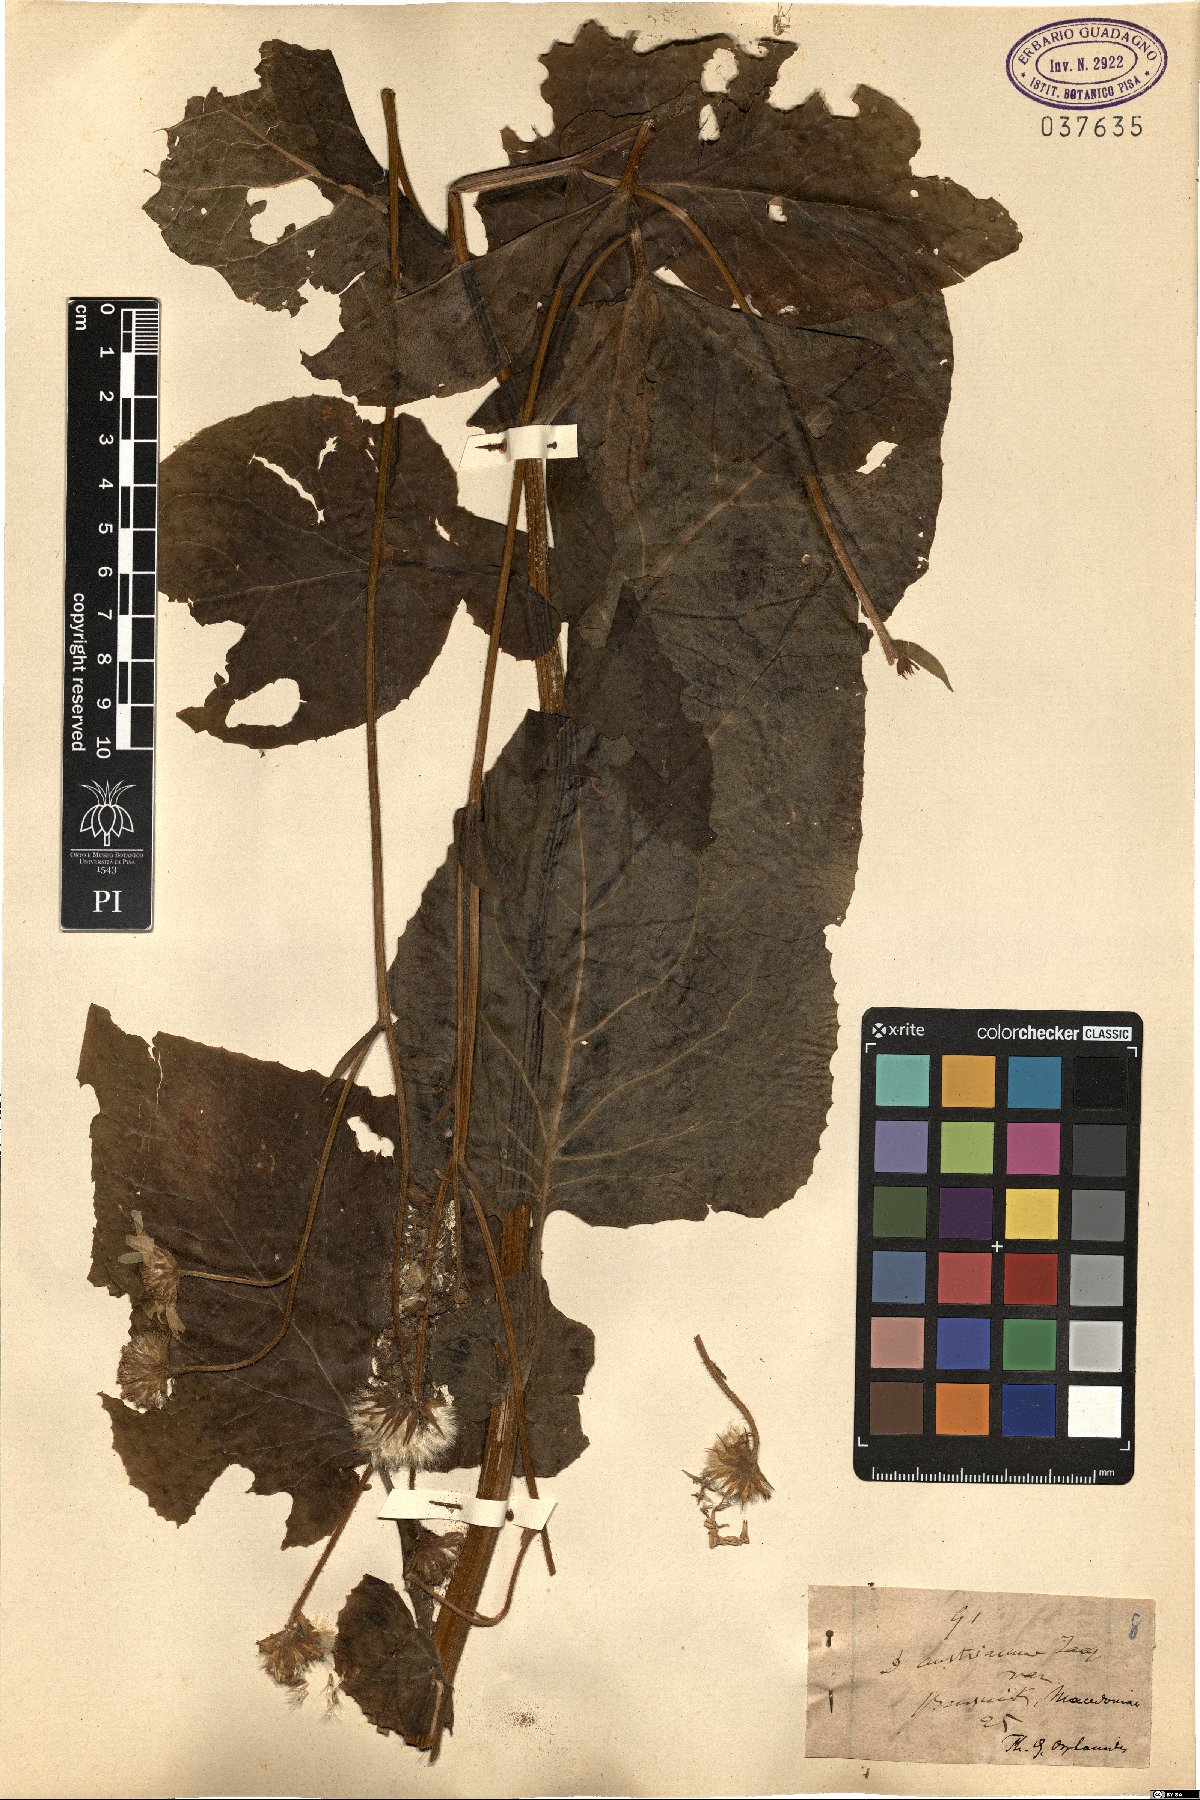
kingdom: Plantae
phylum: Tracheophyta
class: Magnoliopsida
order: Asterales
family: Asteraceae
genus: Doronicum
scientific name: Doronicum austriacum
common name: Austrian leopard's-bane
